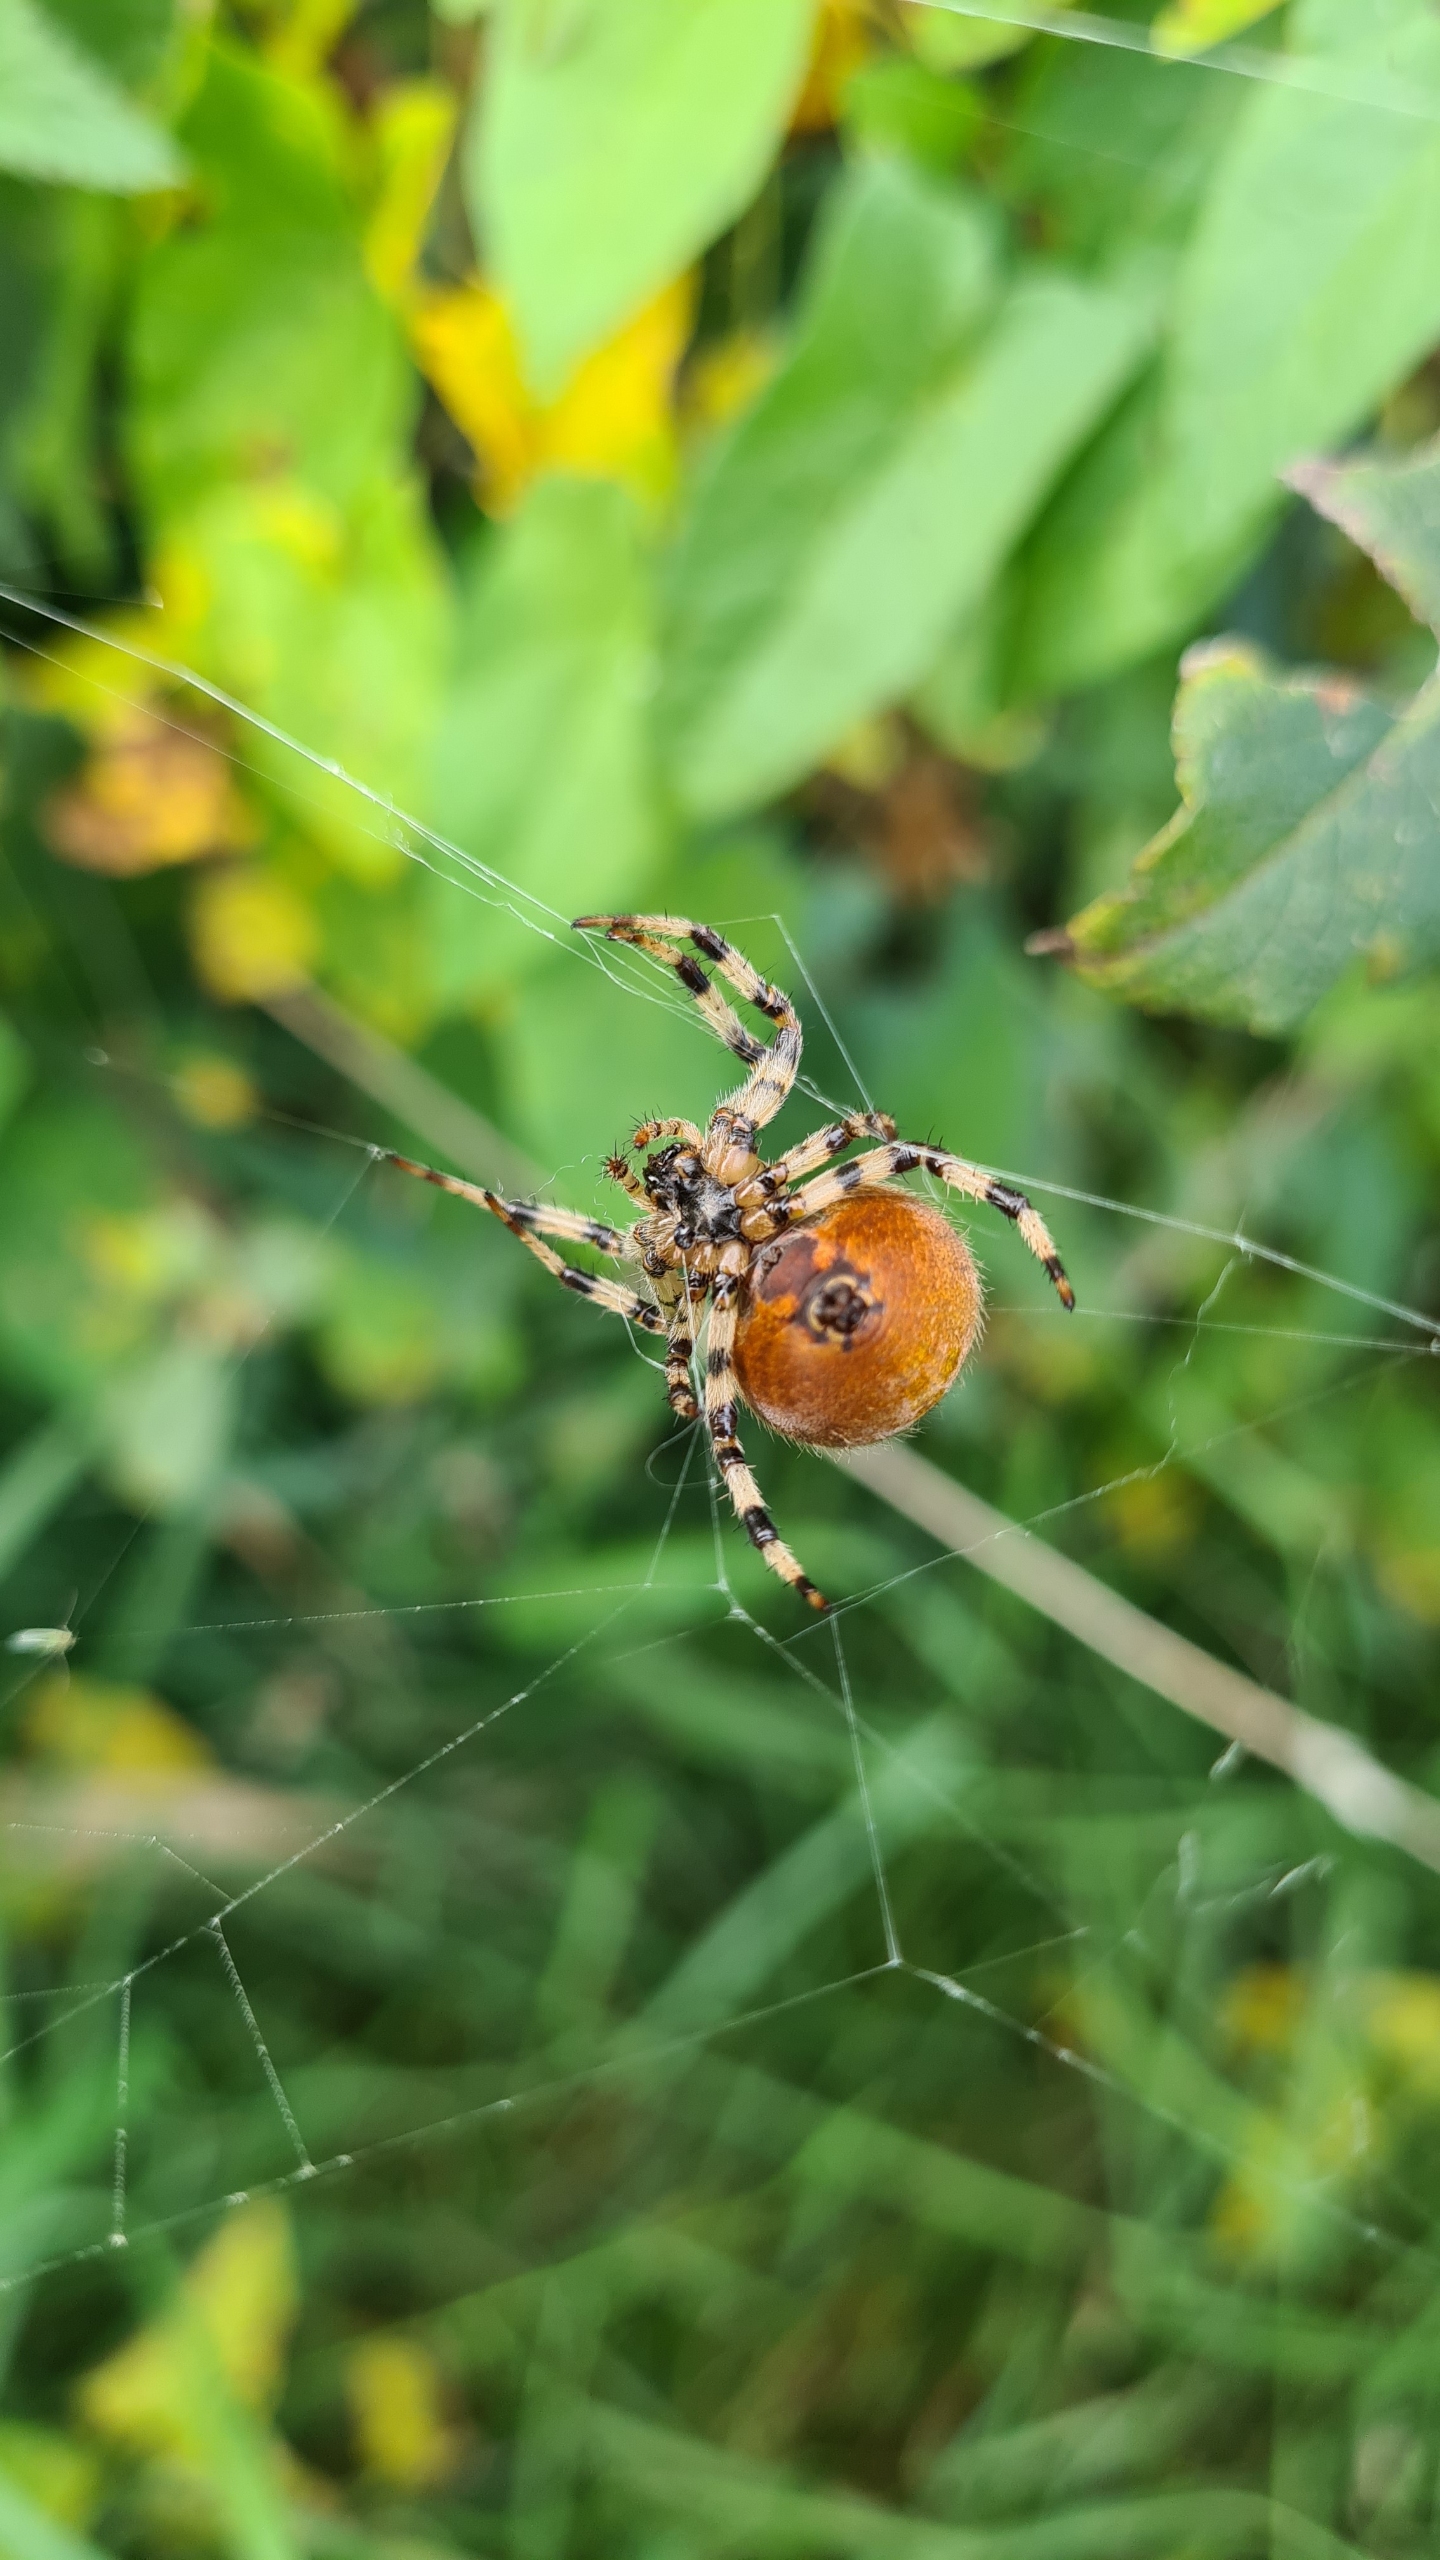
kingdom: Animalia
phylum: Arthropoda
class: Arachnida
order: Araneae
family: Araneidae
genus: Araneus
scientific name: Araneus quadratus
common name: Kvadratedderkop
